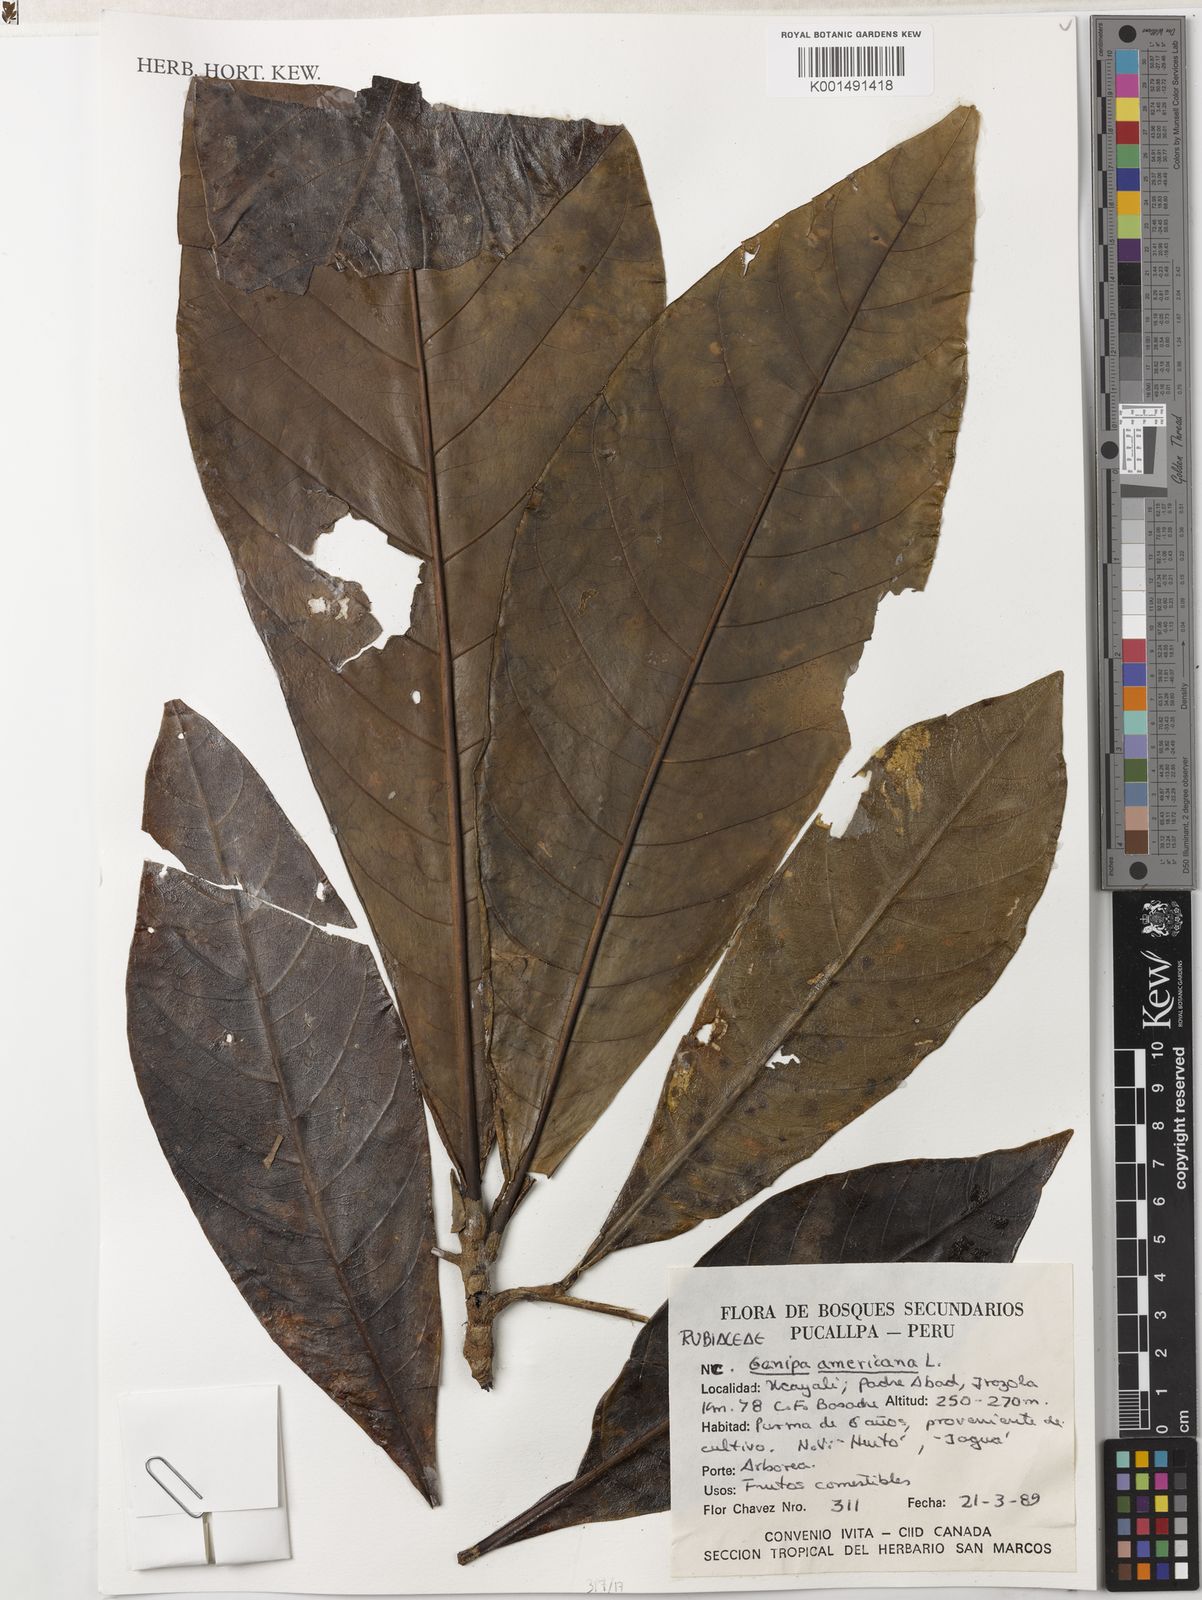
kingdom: Plantae
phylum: Tracheophyta
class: Magnoliopsida
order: Gentianales
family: Rubiaceae
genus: Genipa
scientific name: Genipa americana
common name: Genipap
